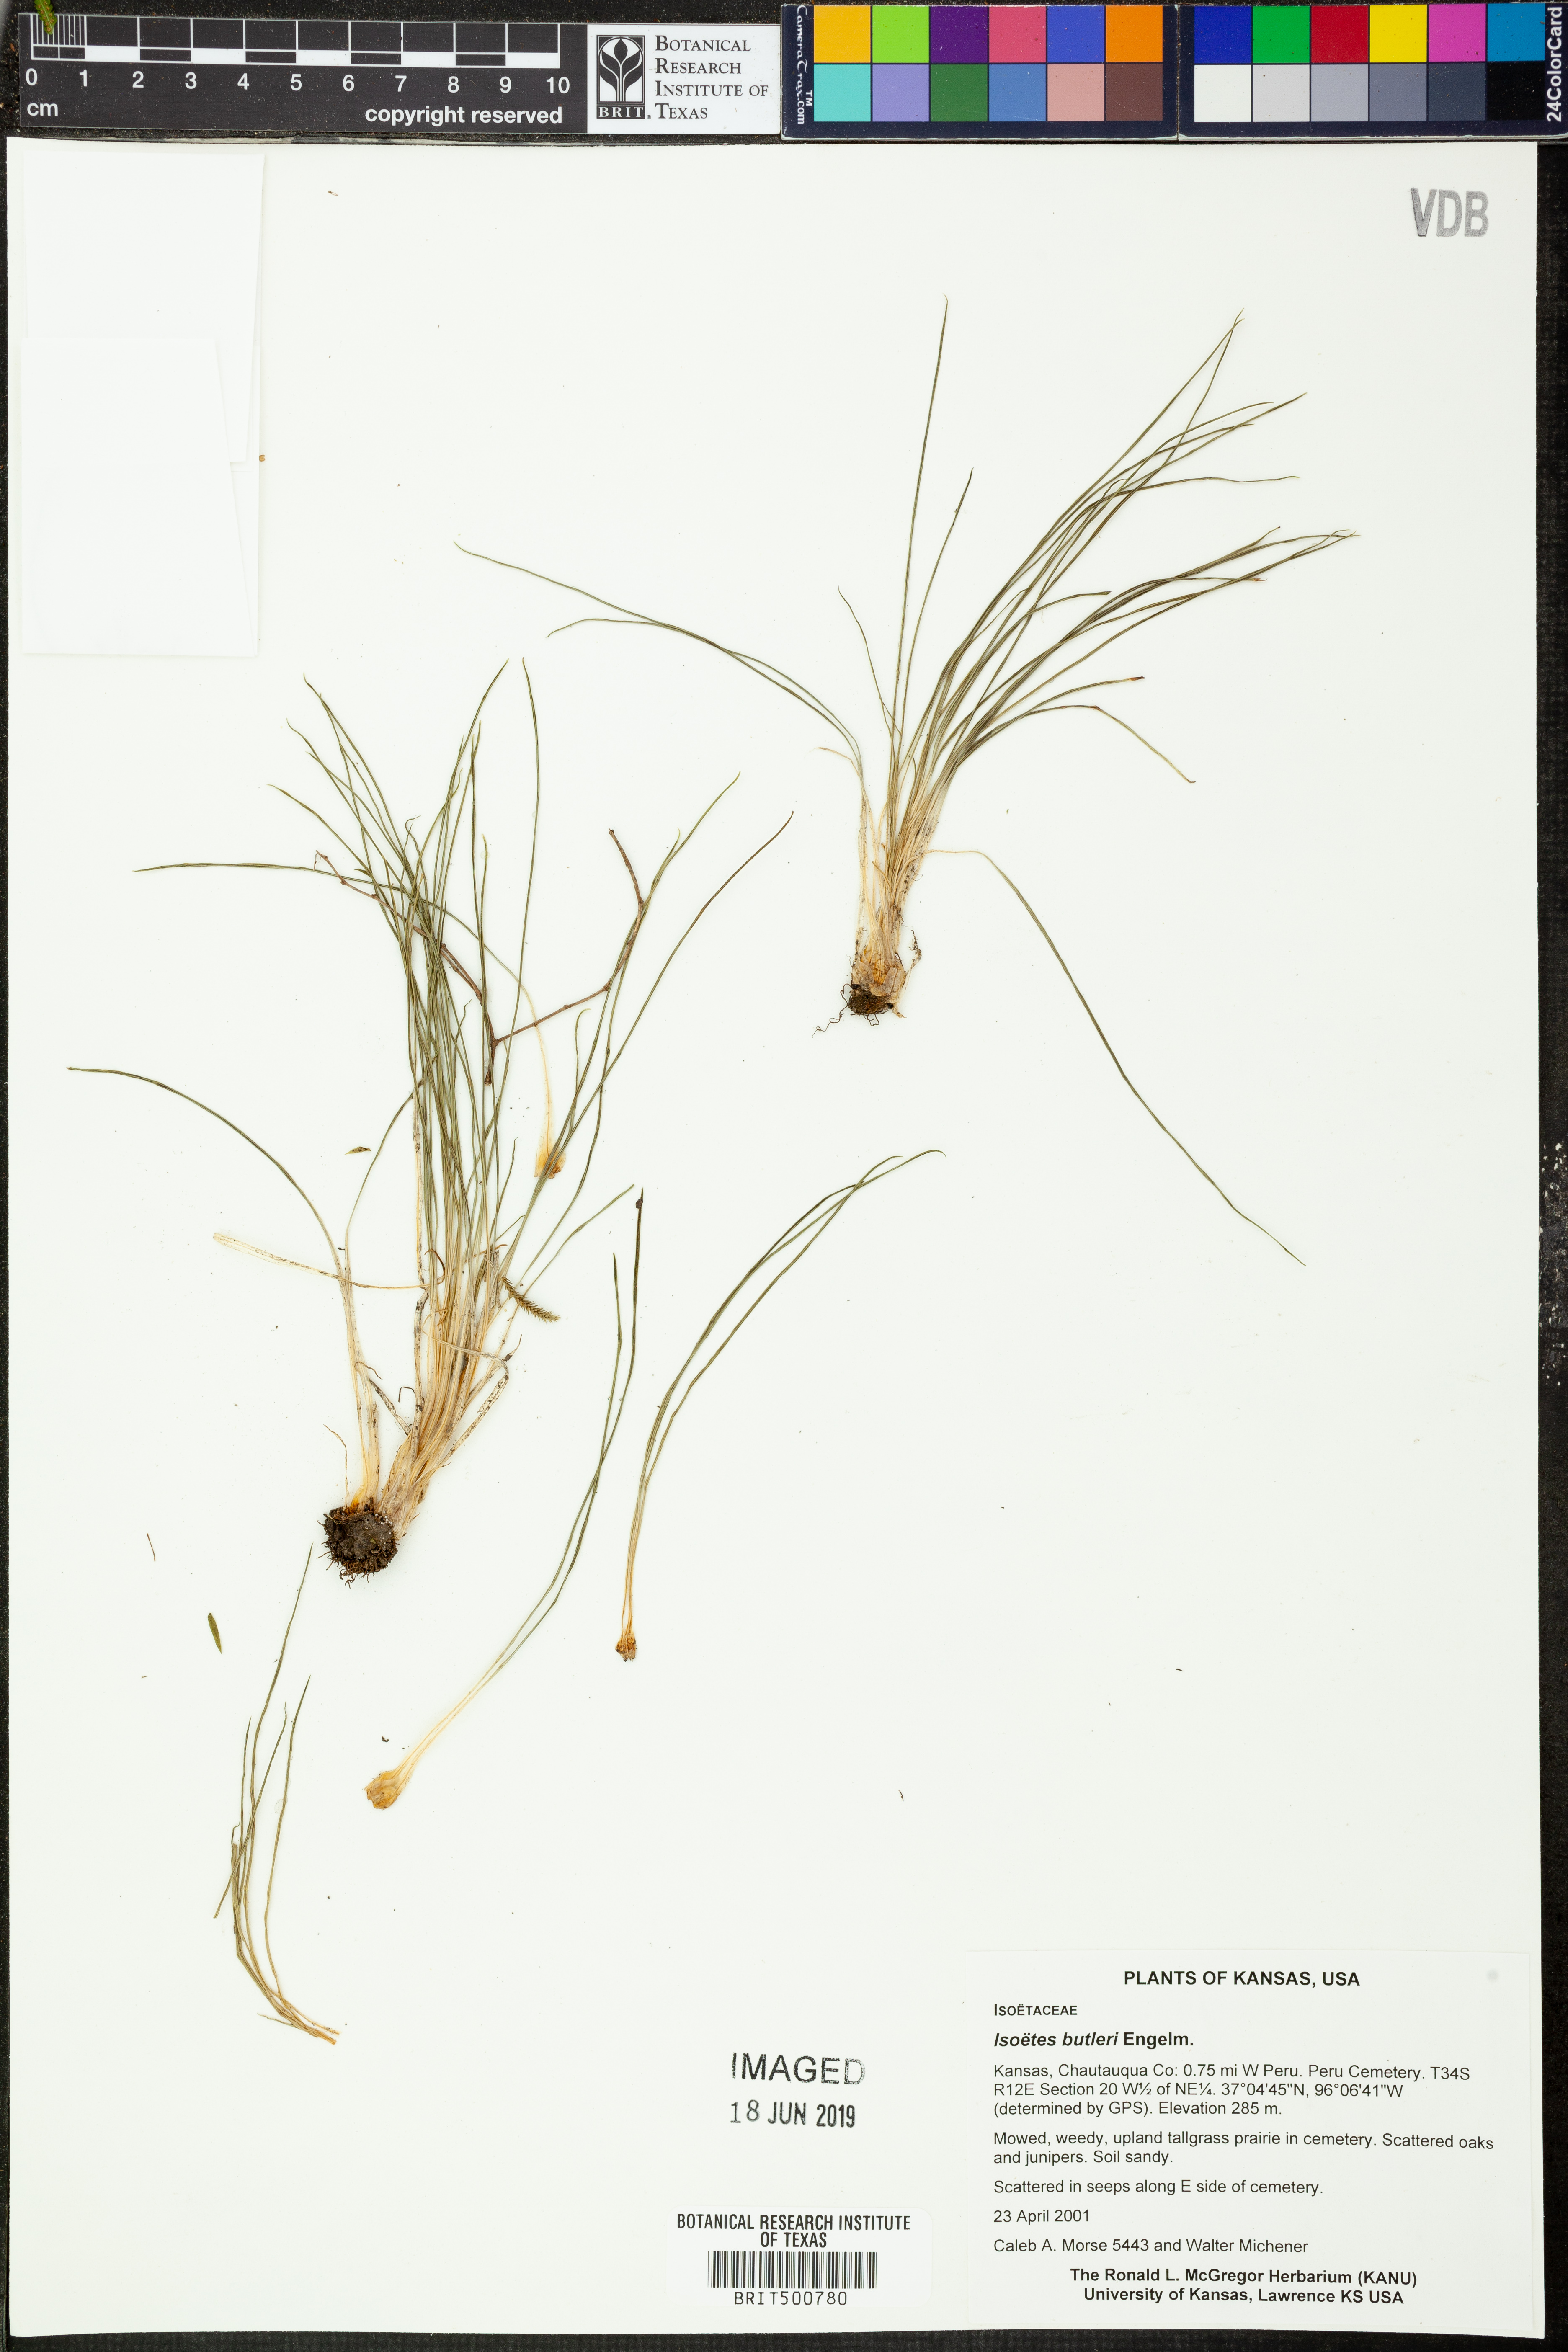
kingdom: Plantae
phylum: Tracheophyta
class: Lycopodiopsida
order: Isoetales
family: Isoetaceae
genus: Isoetes
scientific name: Isoetes butleri
